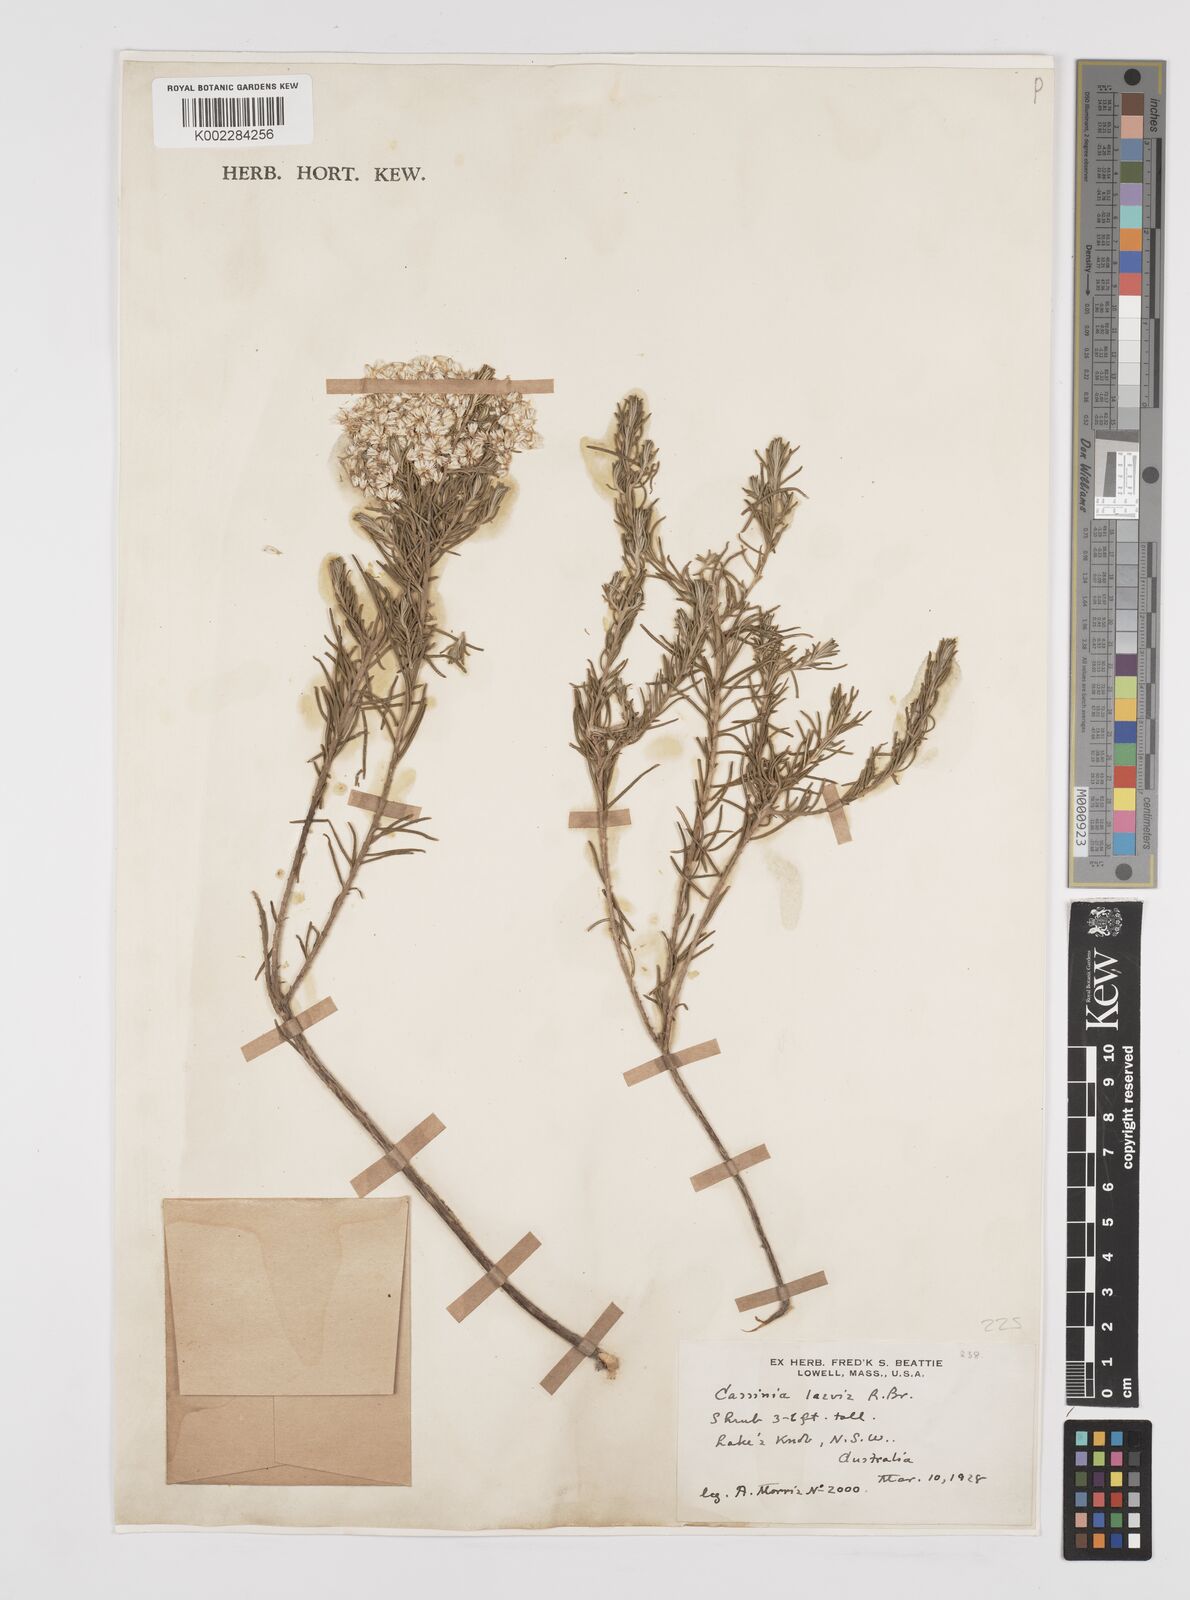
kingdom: Plantae
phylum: Tracheophyta
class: Magnoliopsida
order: Asterales
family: Asteraceae
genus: Cassinia
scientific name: Cassinia laevis
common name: Coughbush
